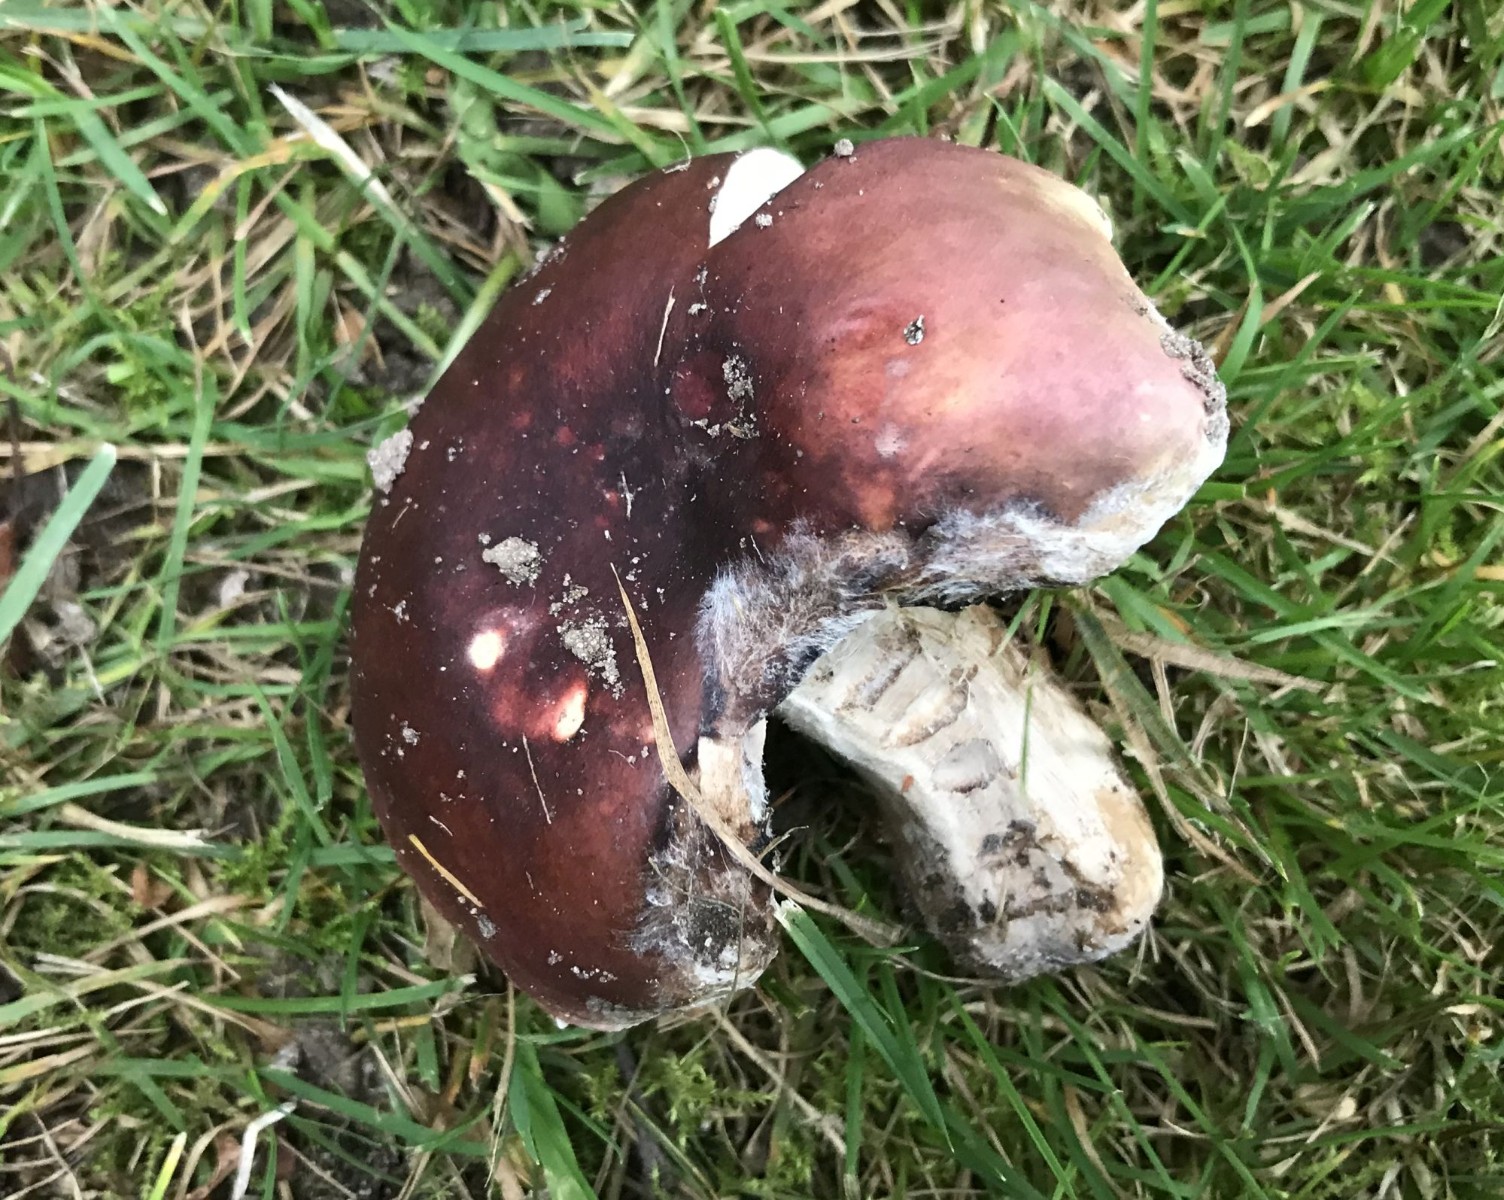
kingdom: Fungi
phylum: Basidiomycota
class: Agaricomycetes
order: Russulales
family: Russulaceae
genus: Russula
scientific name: Russula graveolens
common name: bugtet skørhat
